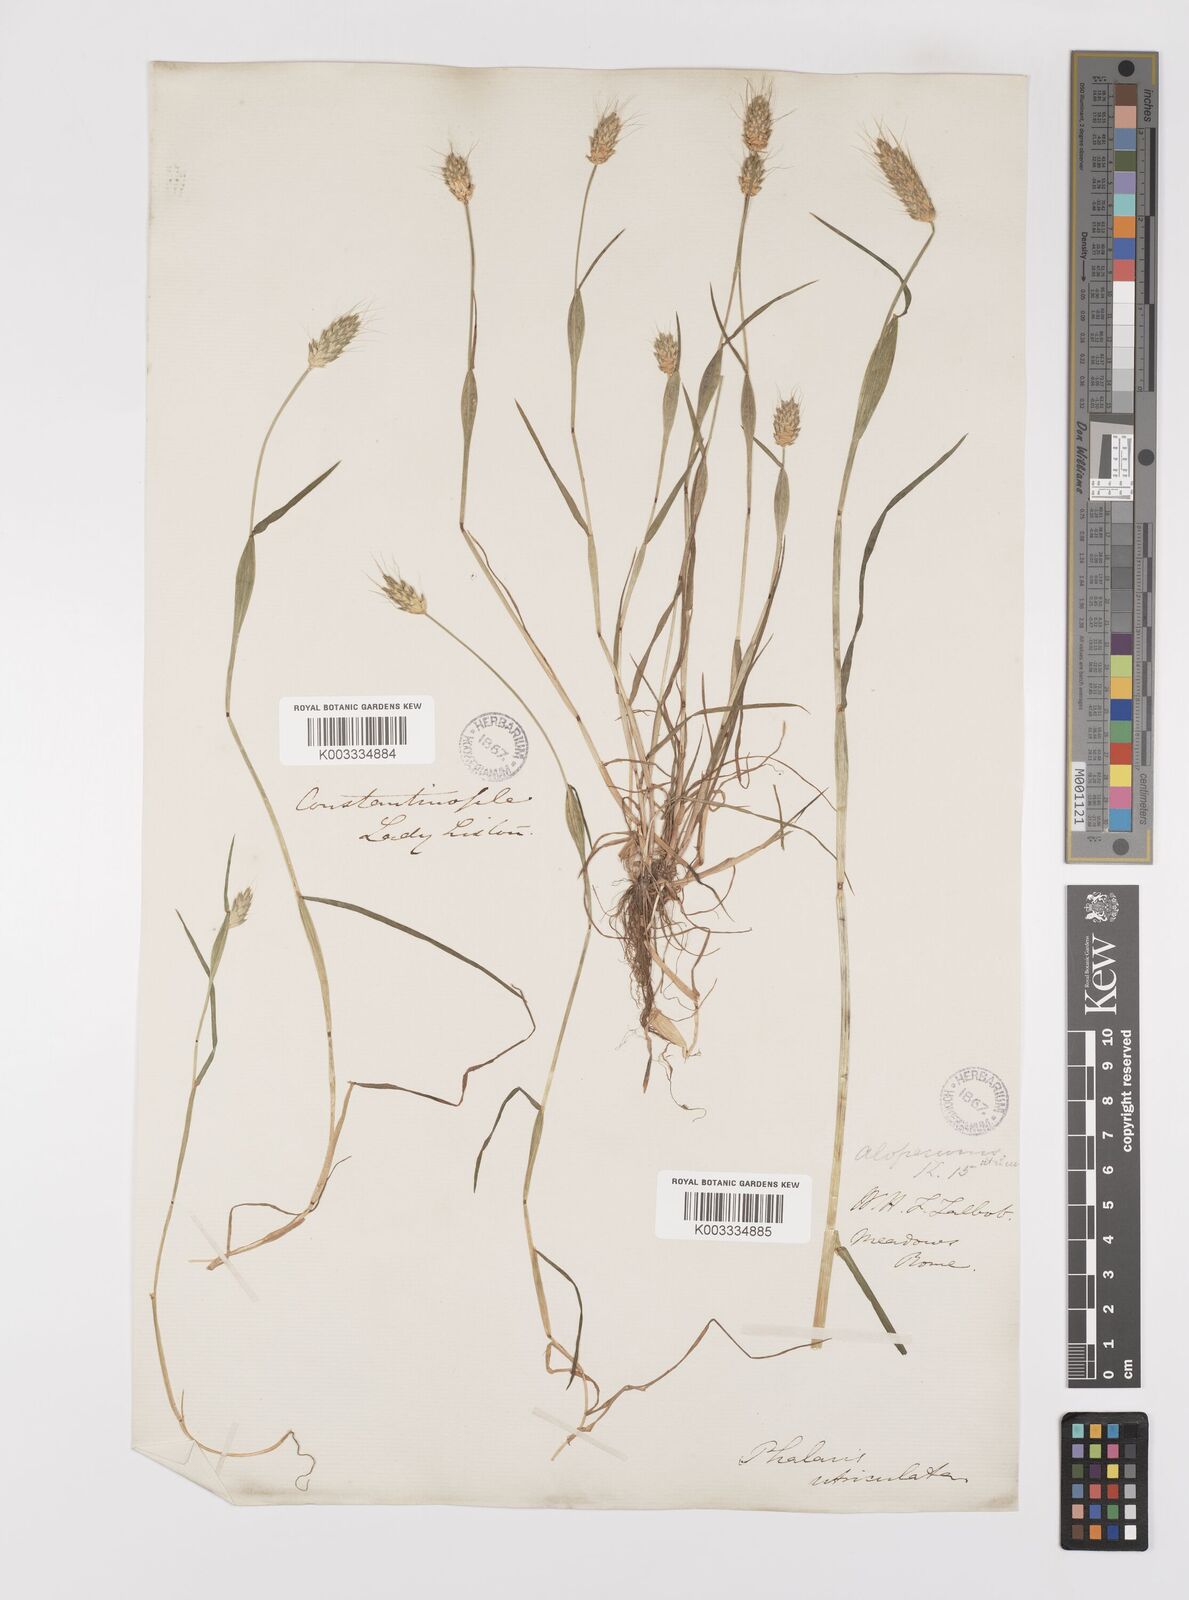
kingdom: Plantae
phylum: Tracheophyta
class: Liliopsida
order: Poales
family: Poaceae
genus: Alopecurus
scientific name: Alopecurus rendlei
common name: Rendle's meadow foxtail
